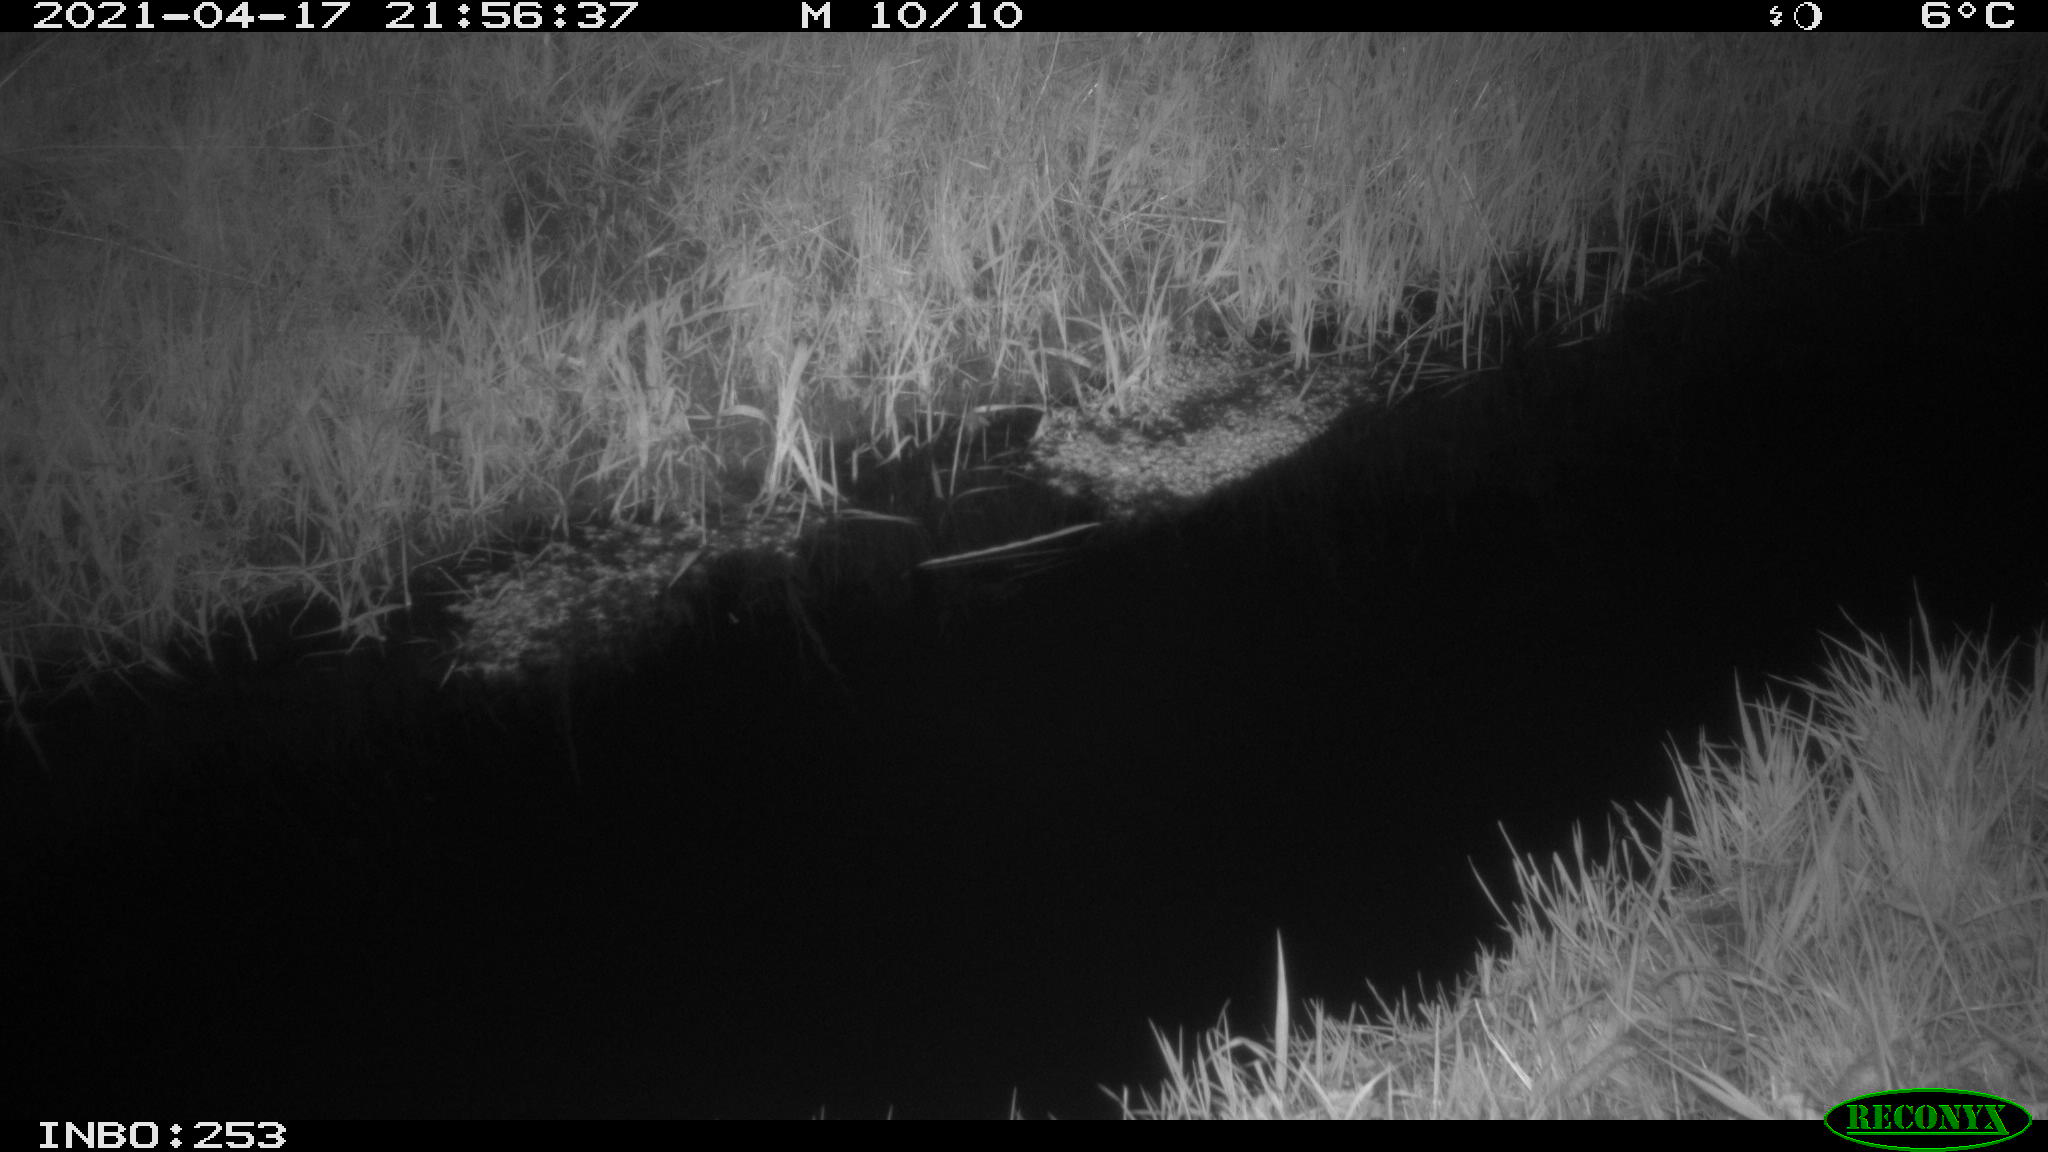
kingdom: Animalia
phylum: Chordata
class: Aves
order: Anseriformes
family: Anatidae
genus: Anas
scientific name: Anas platyrhynchos
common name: Mallard
